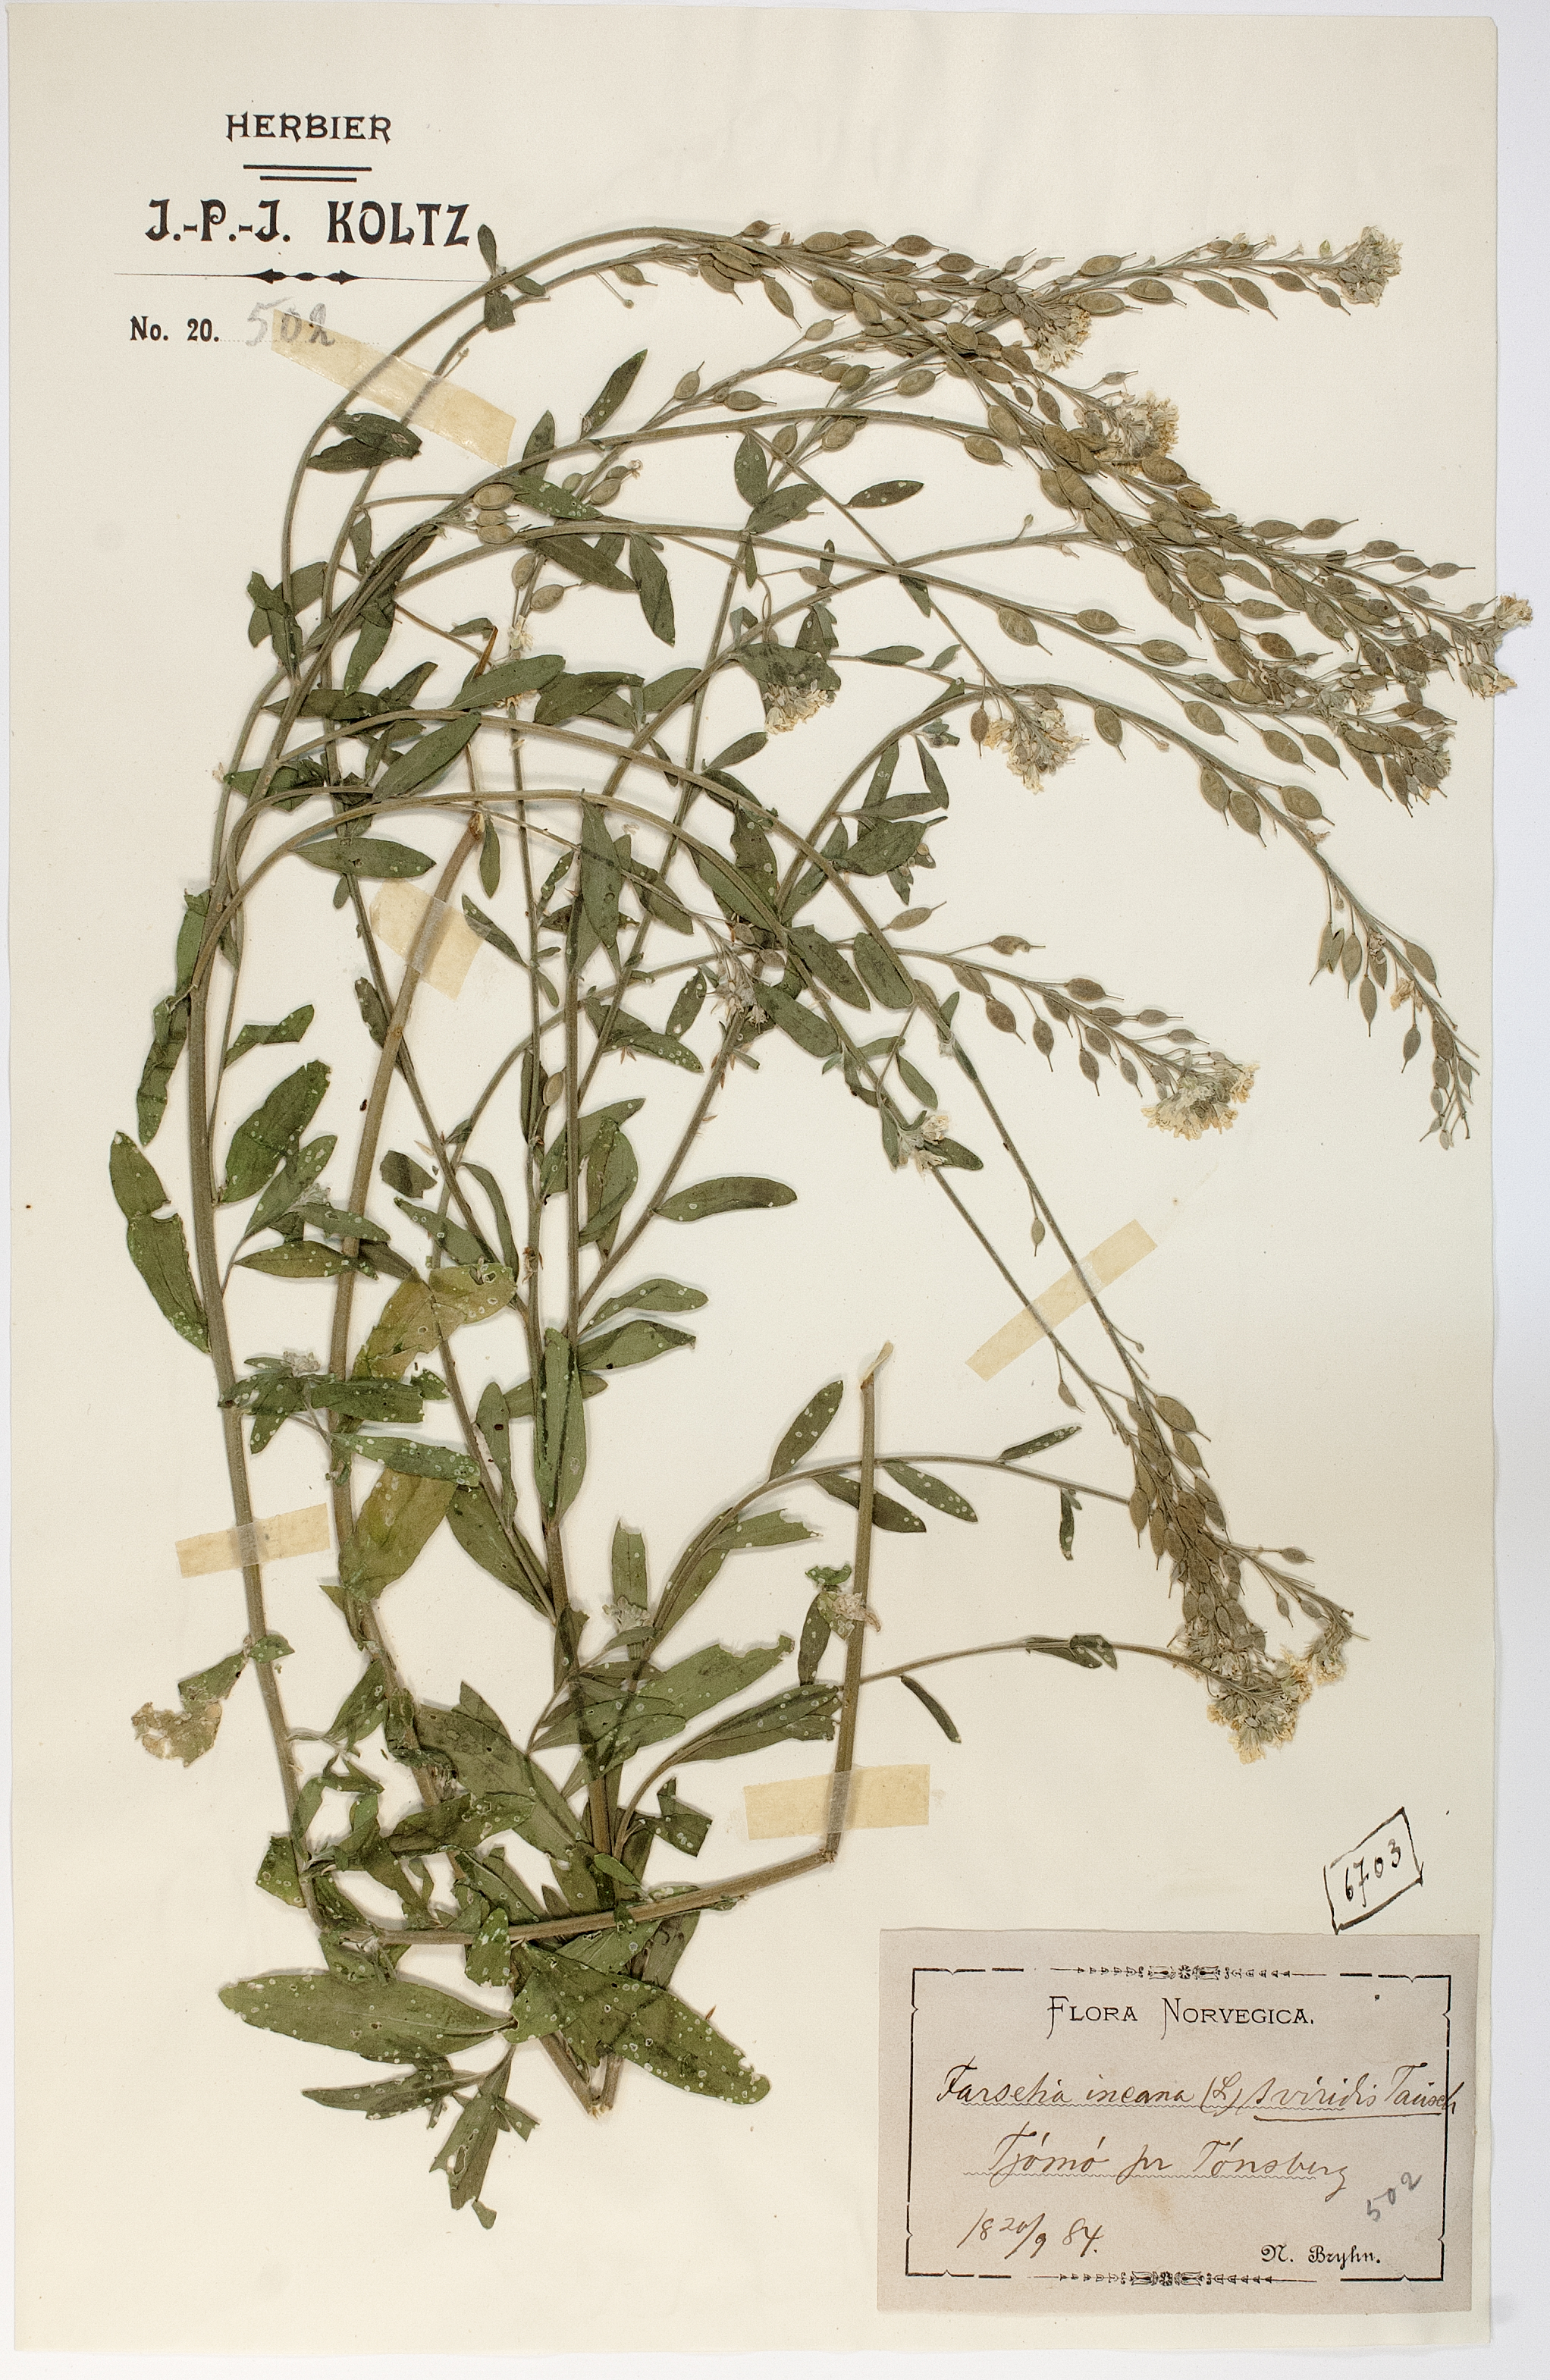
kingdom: Plantae
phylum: Tracheophyta
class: Magnoliopsida
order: Brassicales
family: Brassicaceae
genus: Berteroa
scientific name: Berteroa incana
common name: Hoary alison
